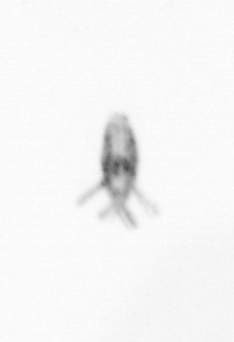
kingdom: Animalia
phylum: Arthropoda
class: Copepoda
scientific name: Copepoda
